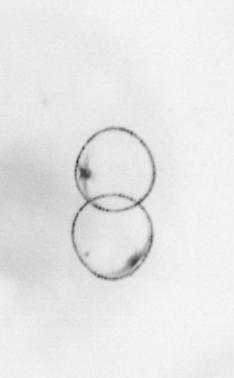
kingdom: Chromista
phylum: Myzozoa
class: Dinophyceae
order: Noctilucales
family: Noctilucaceae
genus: Noctiluca
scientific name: Noctiluca scintillans
